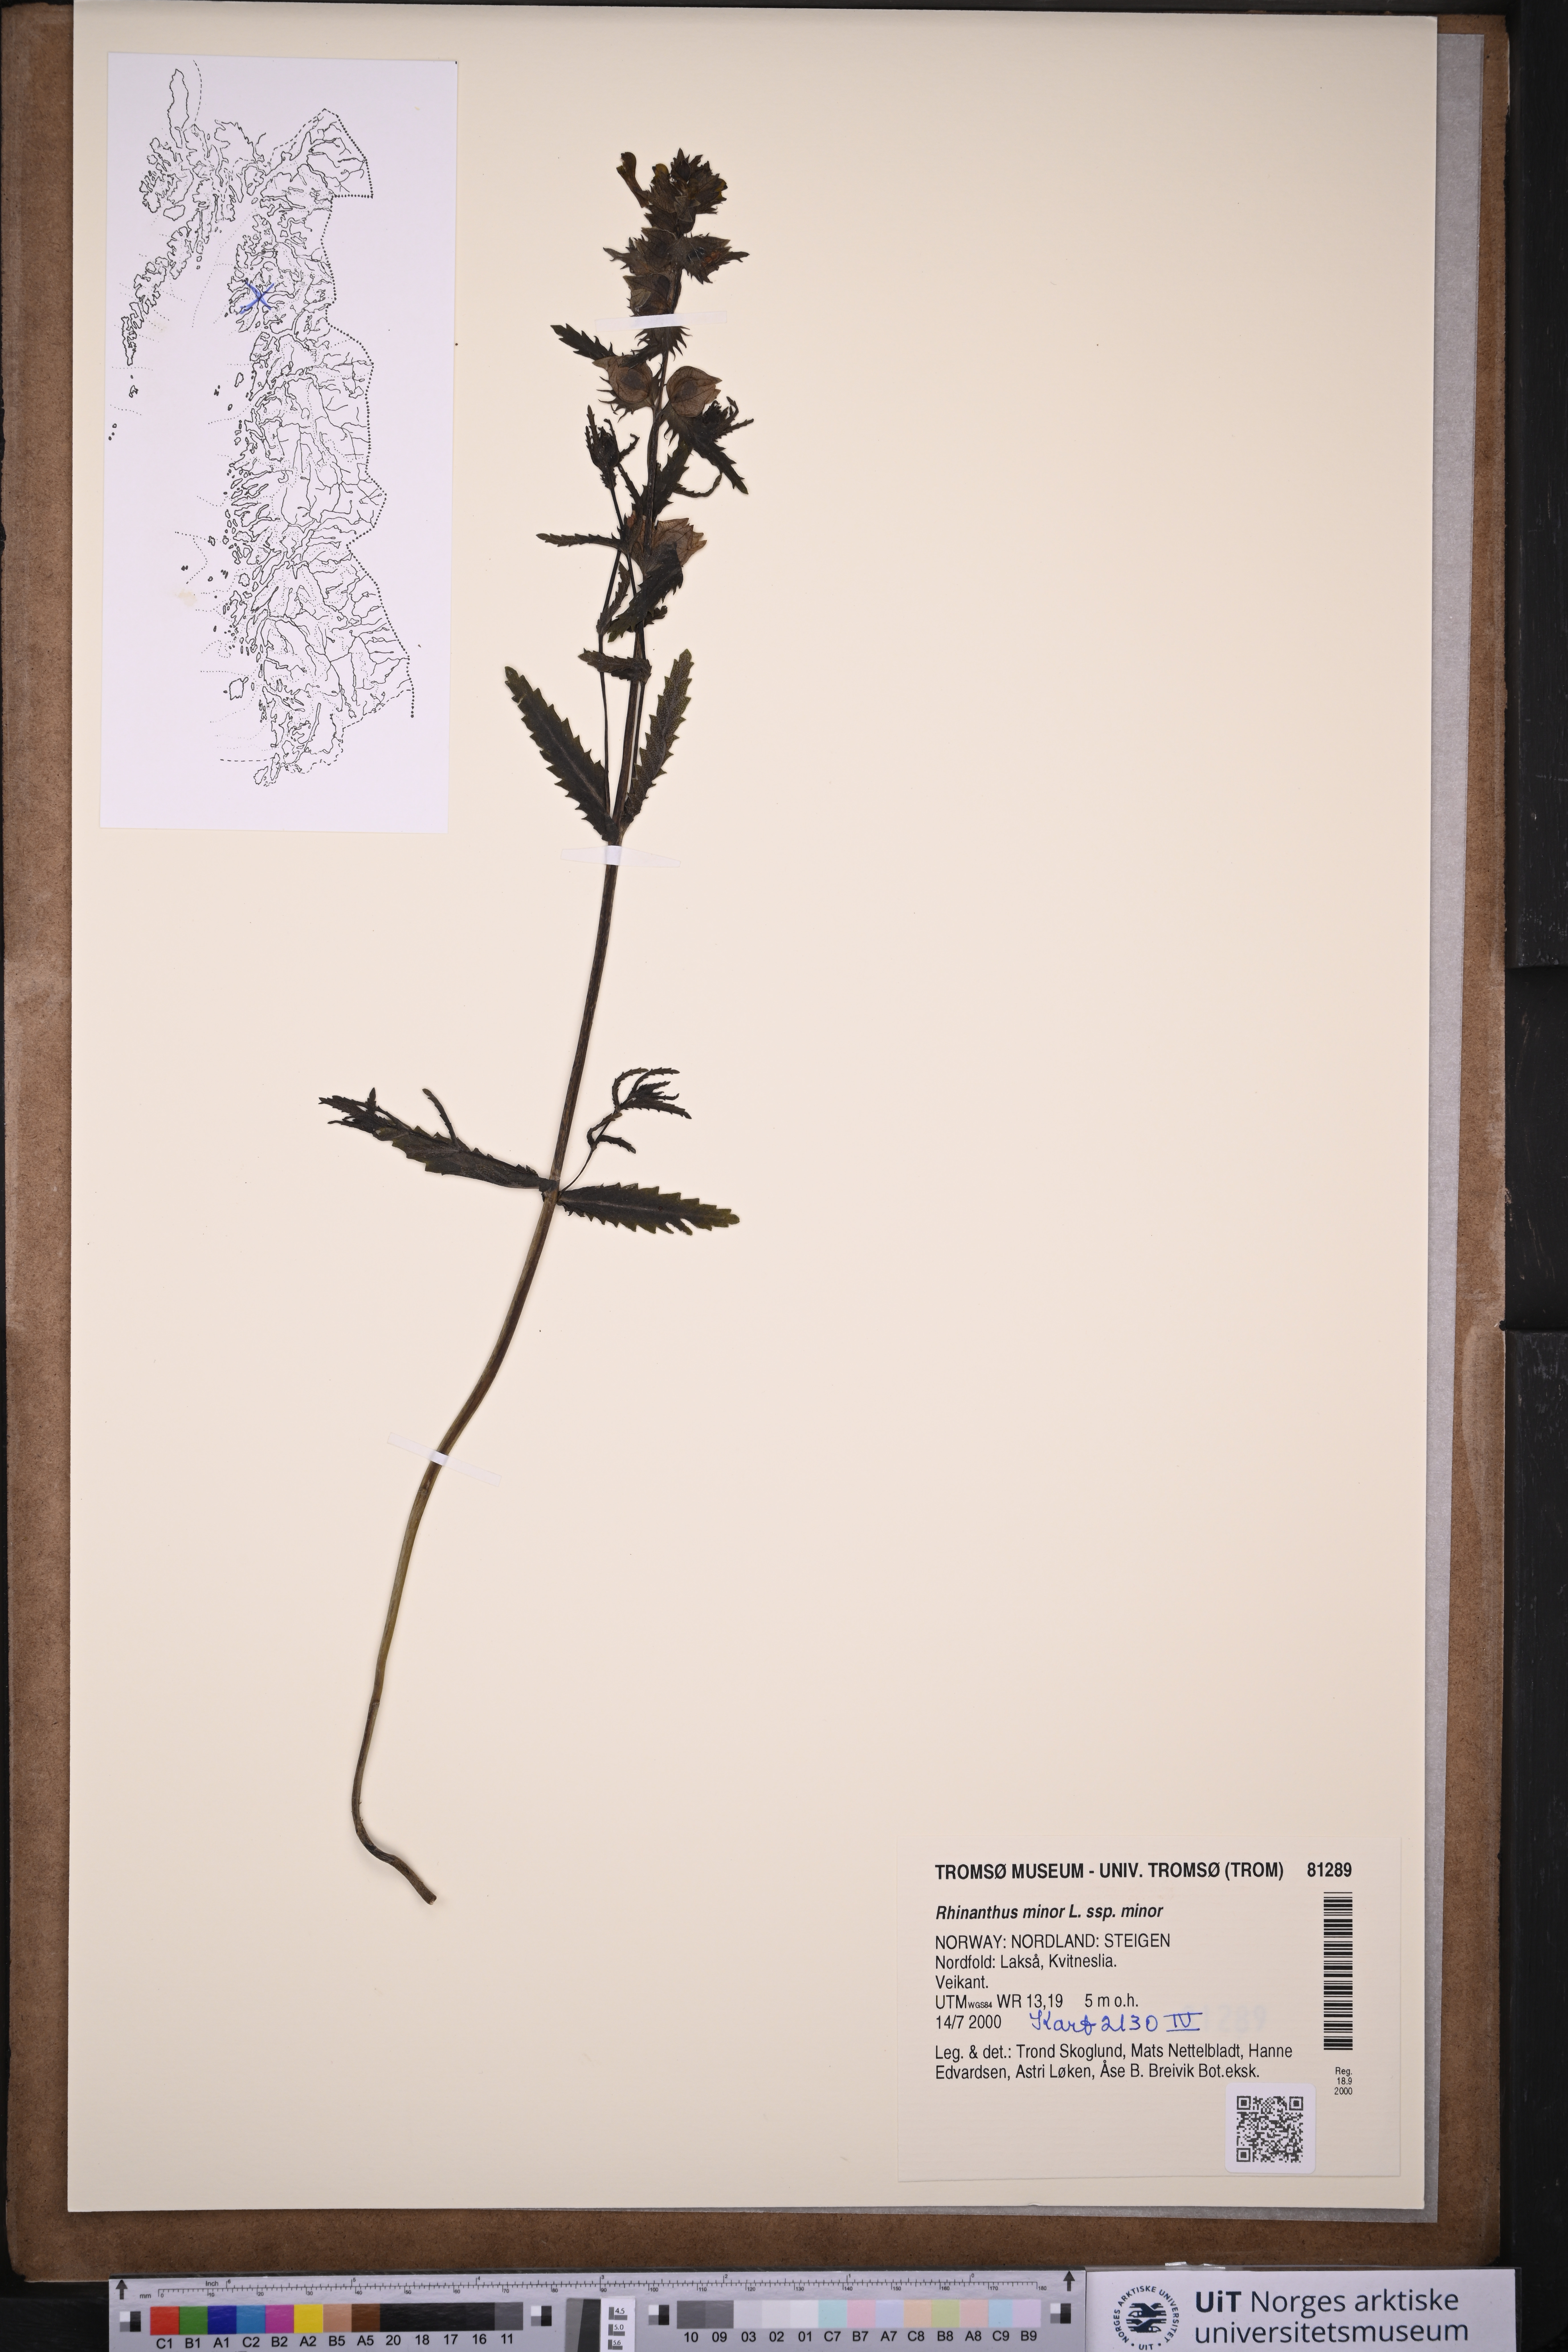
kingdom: Plantae
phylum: Tracheophyta
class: Magnoliopsida
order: Lamiales
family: Orobanchaceae
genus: Rhinanthus
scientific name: Rhinanthus minor
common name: Yellow-rattle
